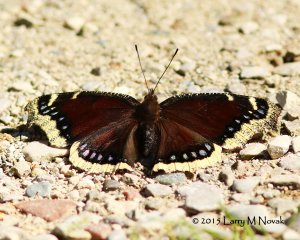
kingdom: Animalia
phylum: Arthropoda
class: Insecta
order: Lepidoptera
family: Nymphalidae
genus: Nymphalis
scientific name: Nymphalis antiopa
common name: Mourning Cloak
